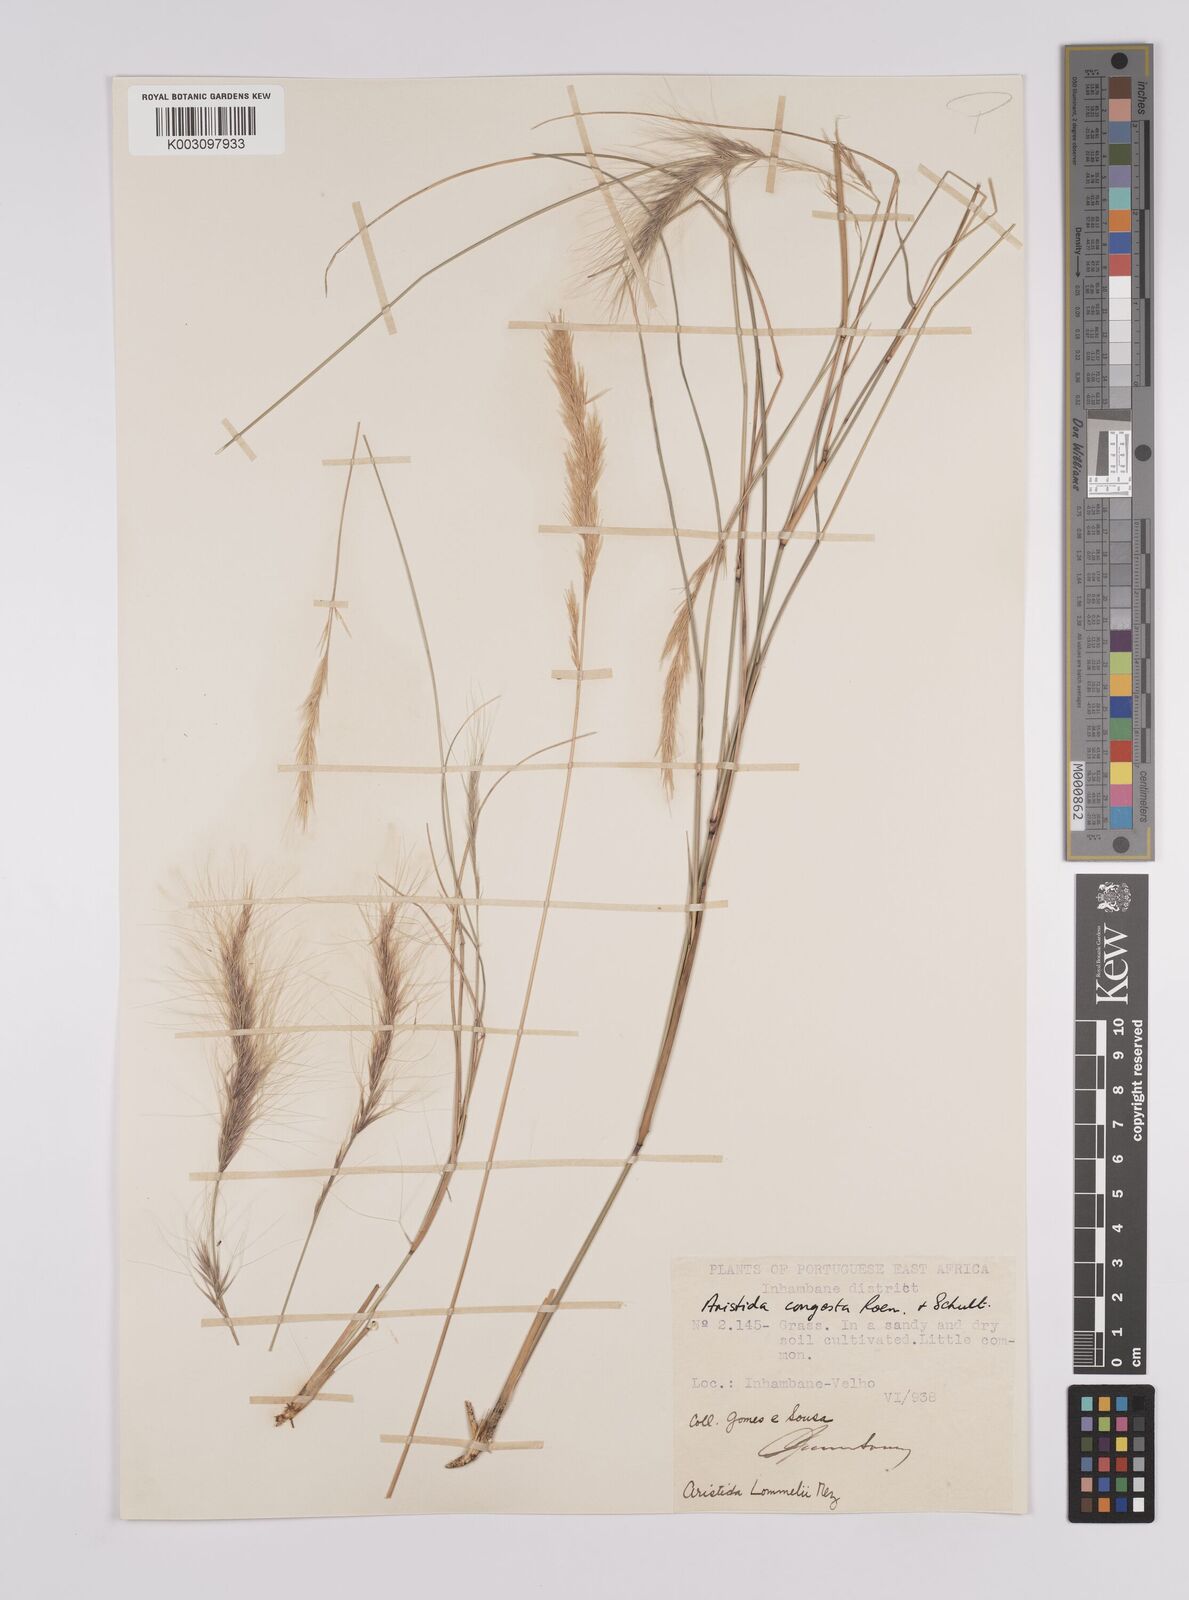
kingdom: Plantae
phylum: Tracheophyta
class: Liliopsida
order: Poales
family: Poaceae
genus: Aristida
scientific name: Aristida congesta
